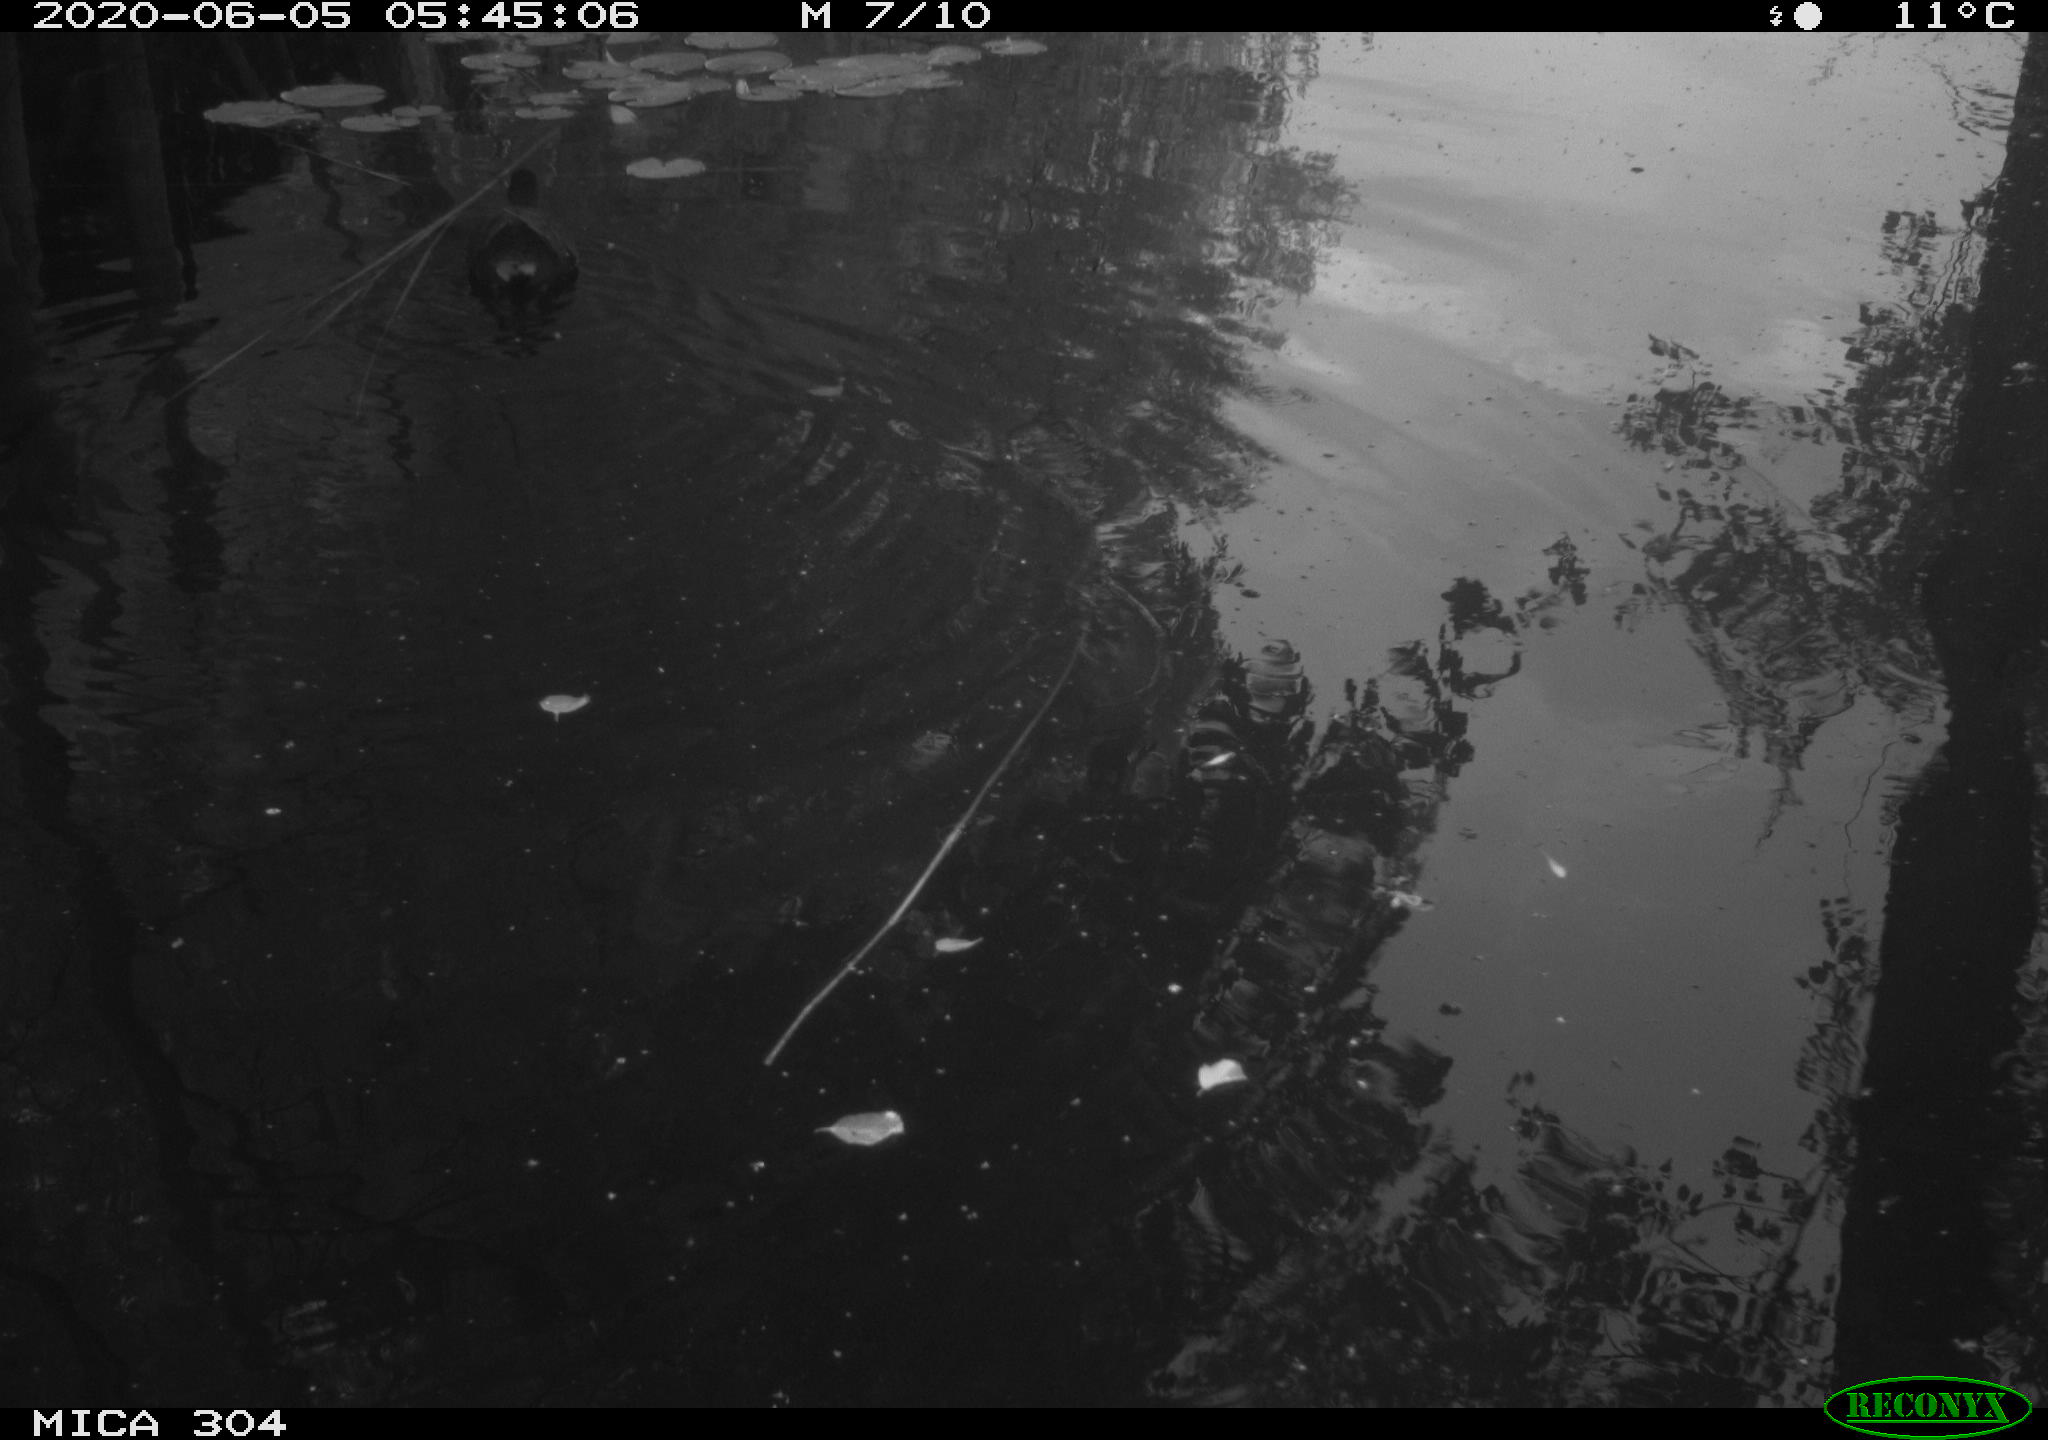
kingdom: Animalia
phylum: Chordata
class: Aves
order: Gruiformes
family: Rallidae
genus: Gallinula
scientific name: Gallinula chloropus
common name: Common moorhen
